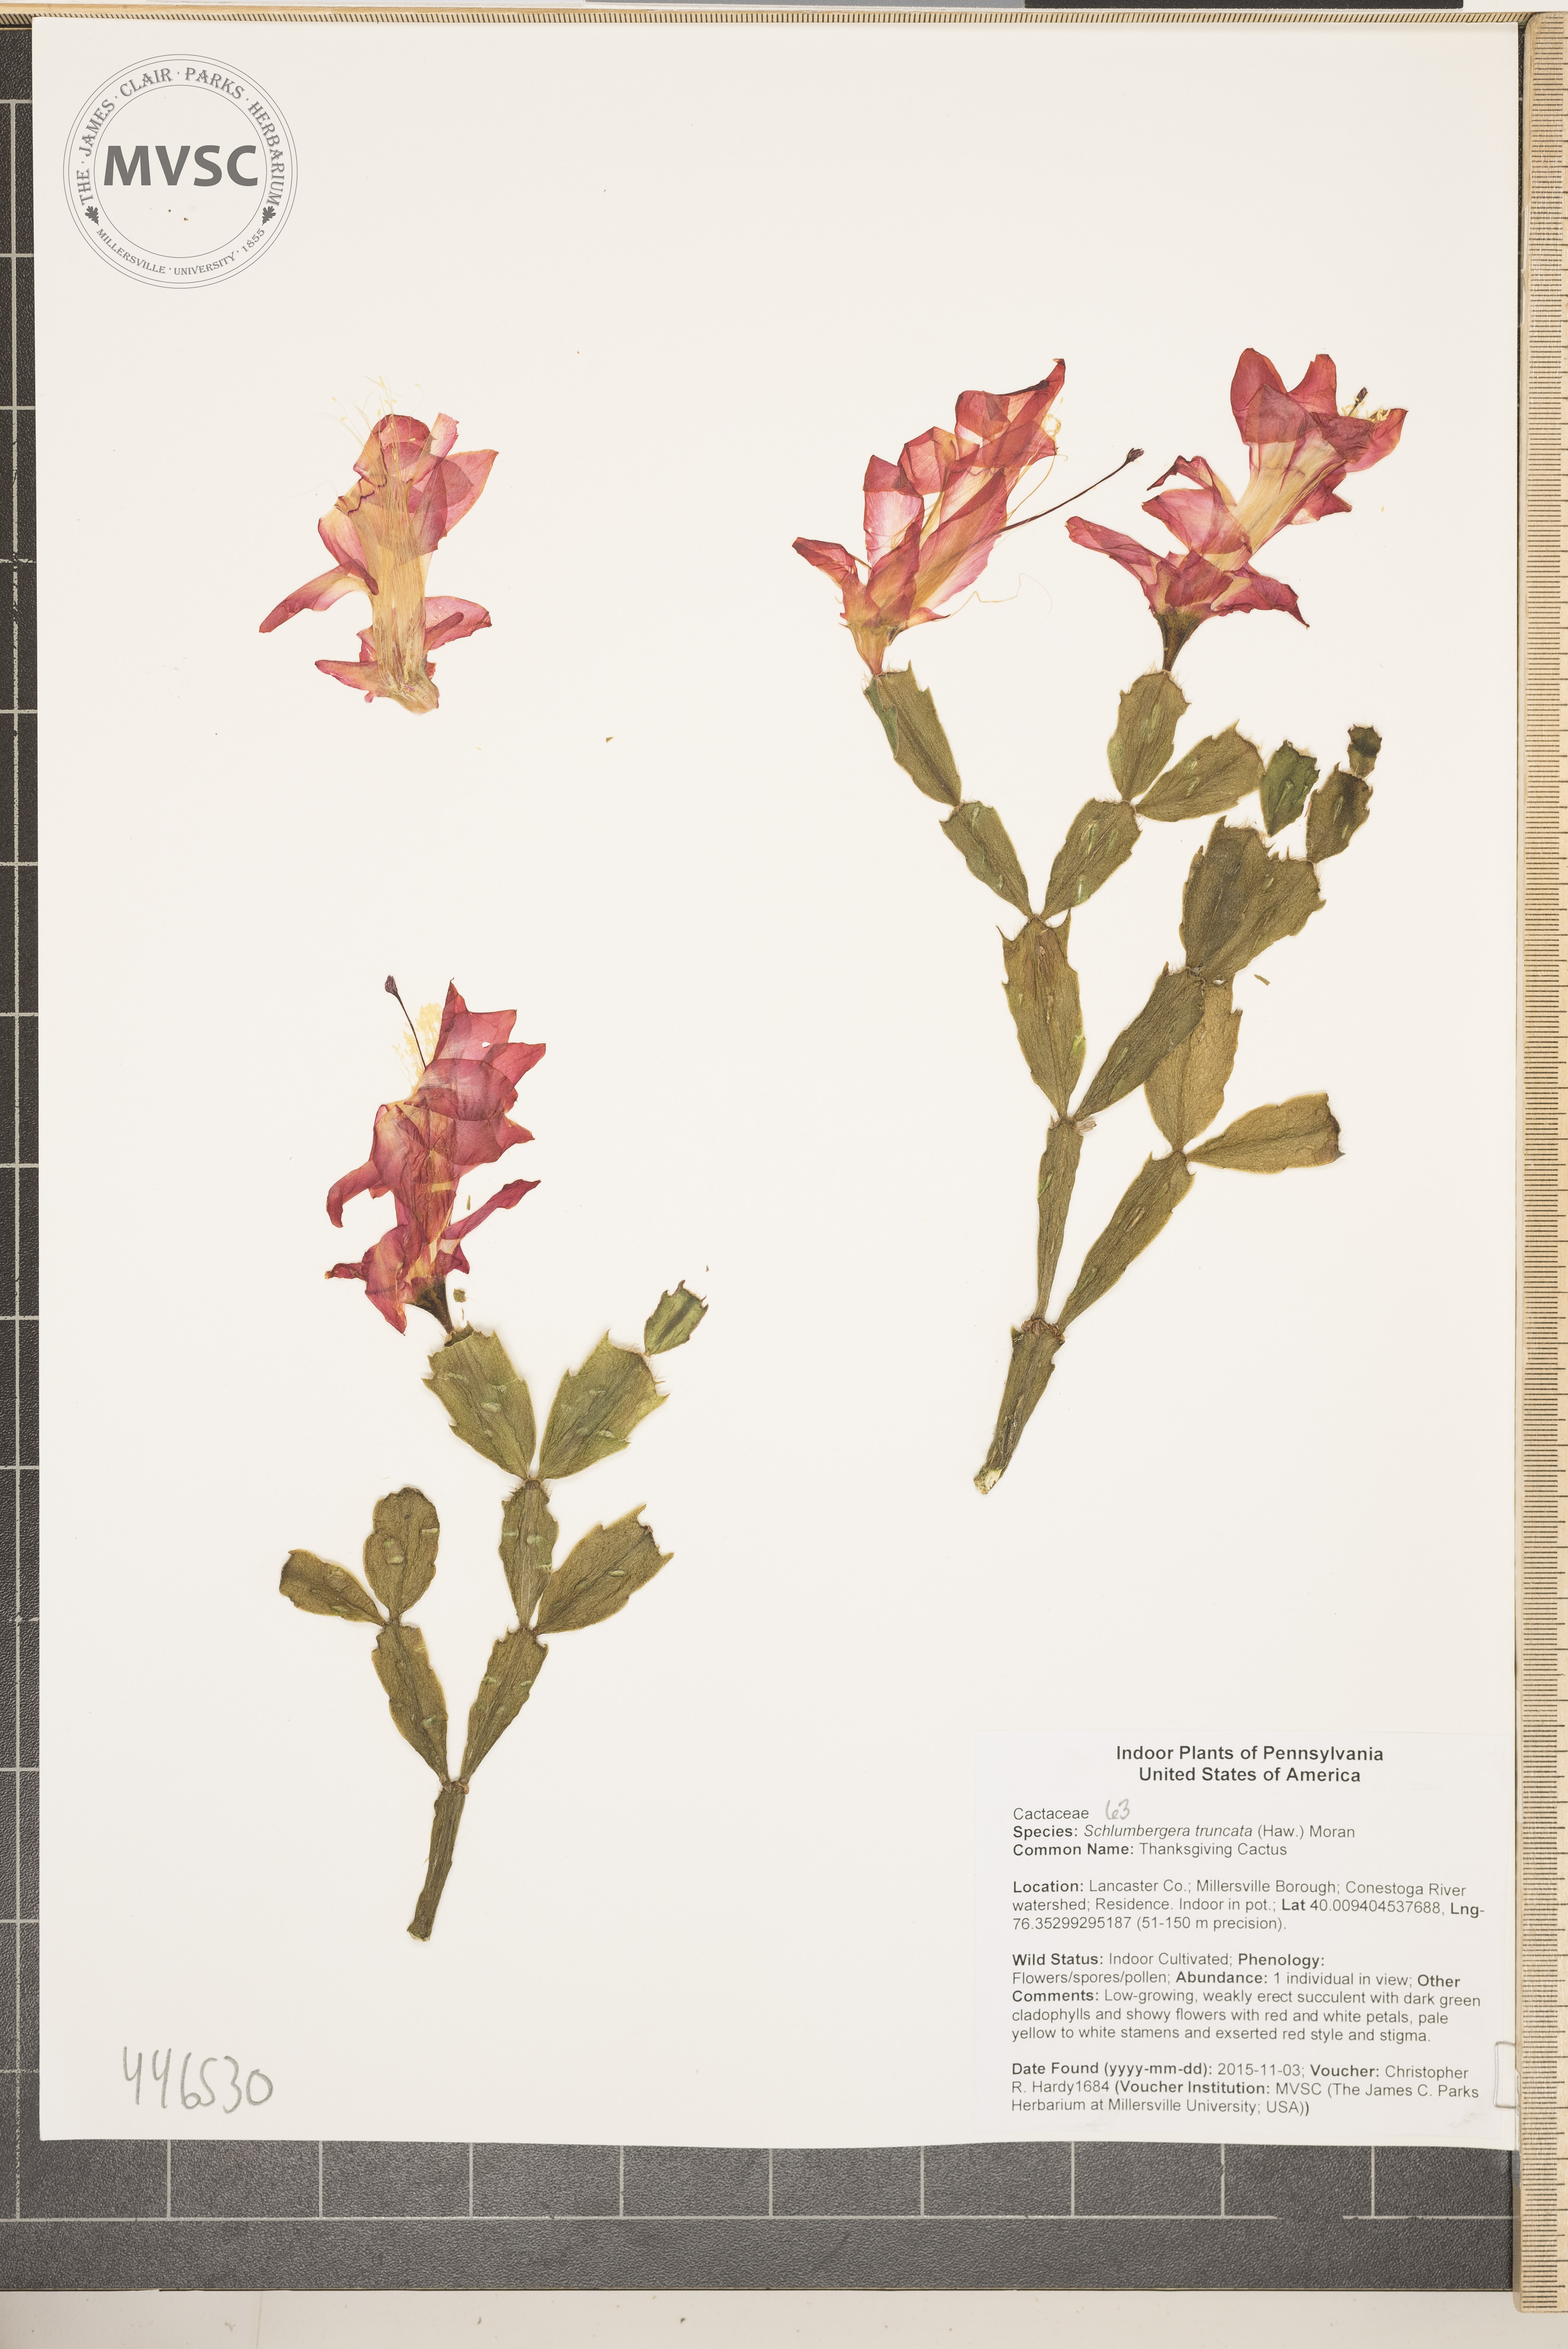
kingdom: Plantae
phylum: Tracheophyta
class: Magnoliopsida
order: Caryophyllales
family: Cactaceae
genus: Schlumbergera
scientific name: Schlumbergera truncata
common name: Thanksgiving Cactus
